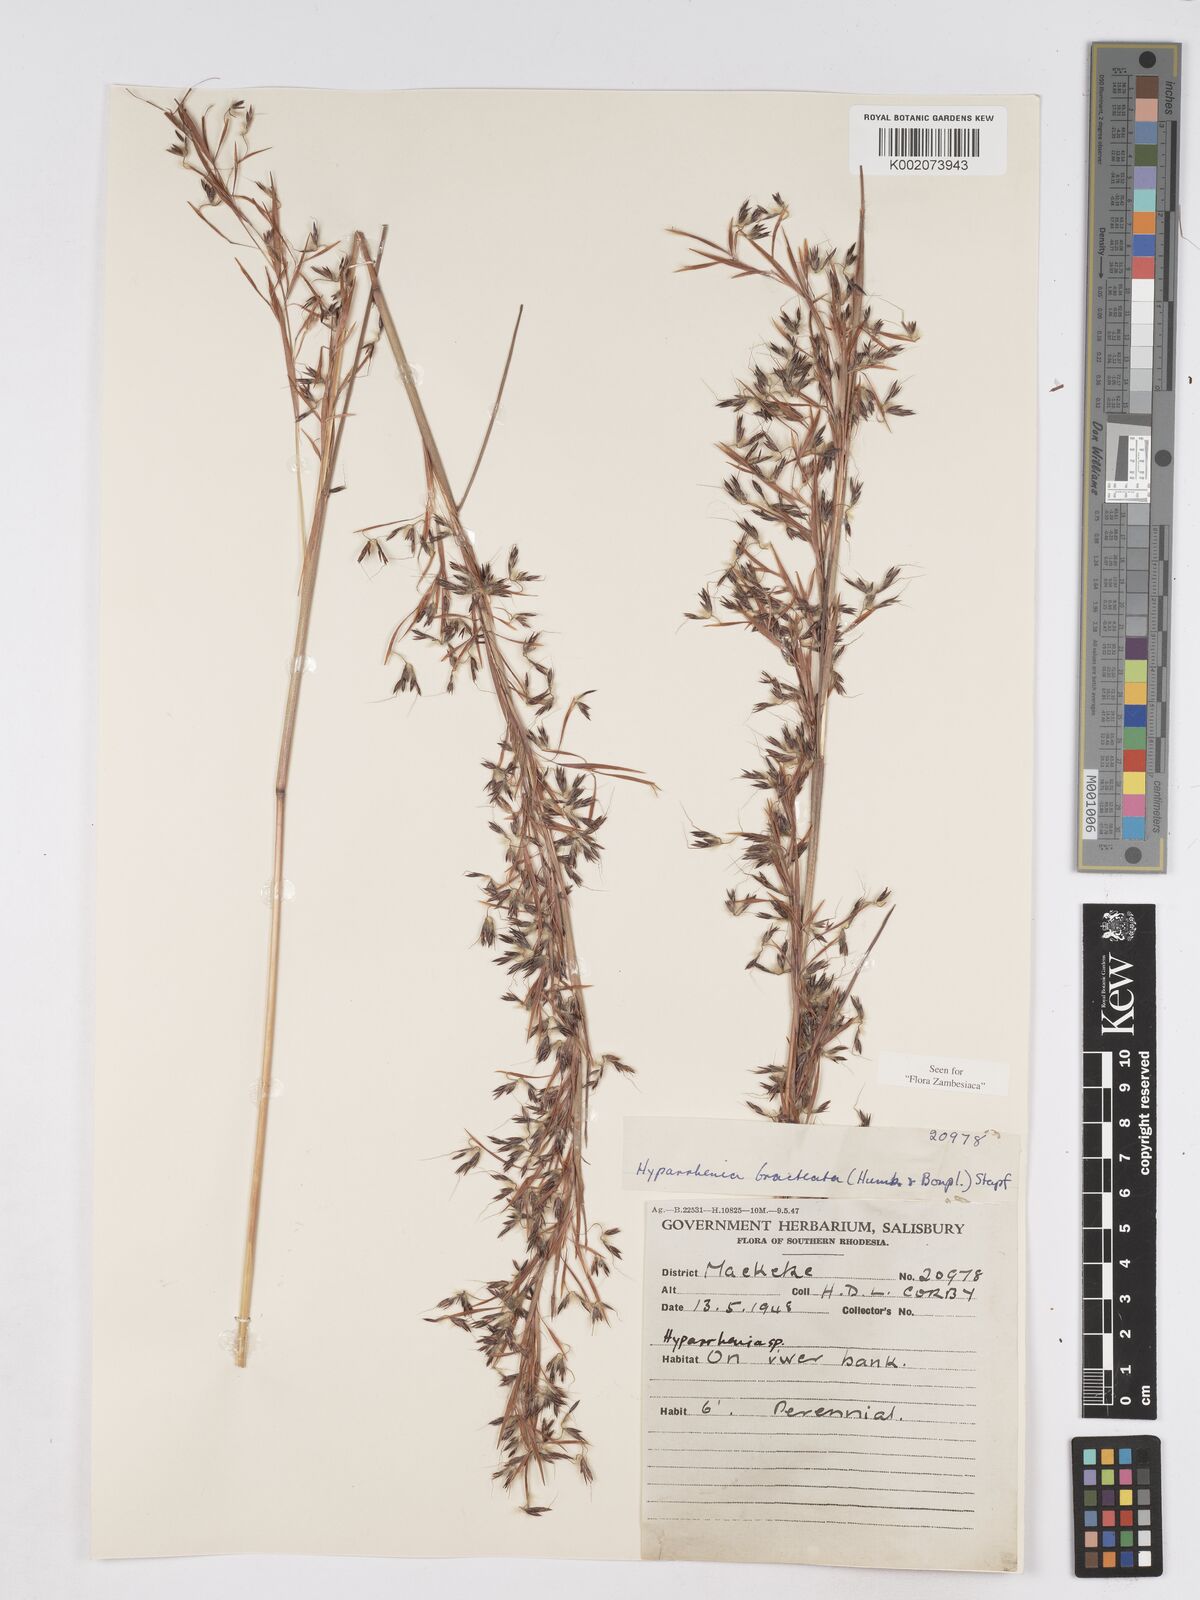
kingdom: Plantae
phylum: Tracheophyta
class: Liliopsida
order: Poales
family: Poaceae
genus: Hyparrhenia
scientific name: Hyparrhenia bracteata
